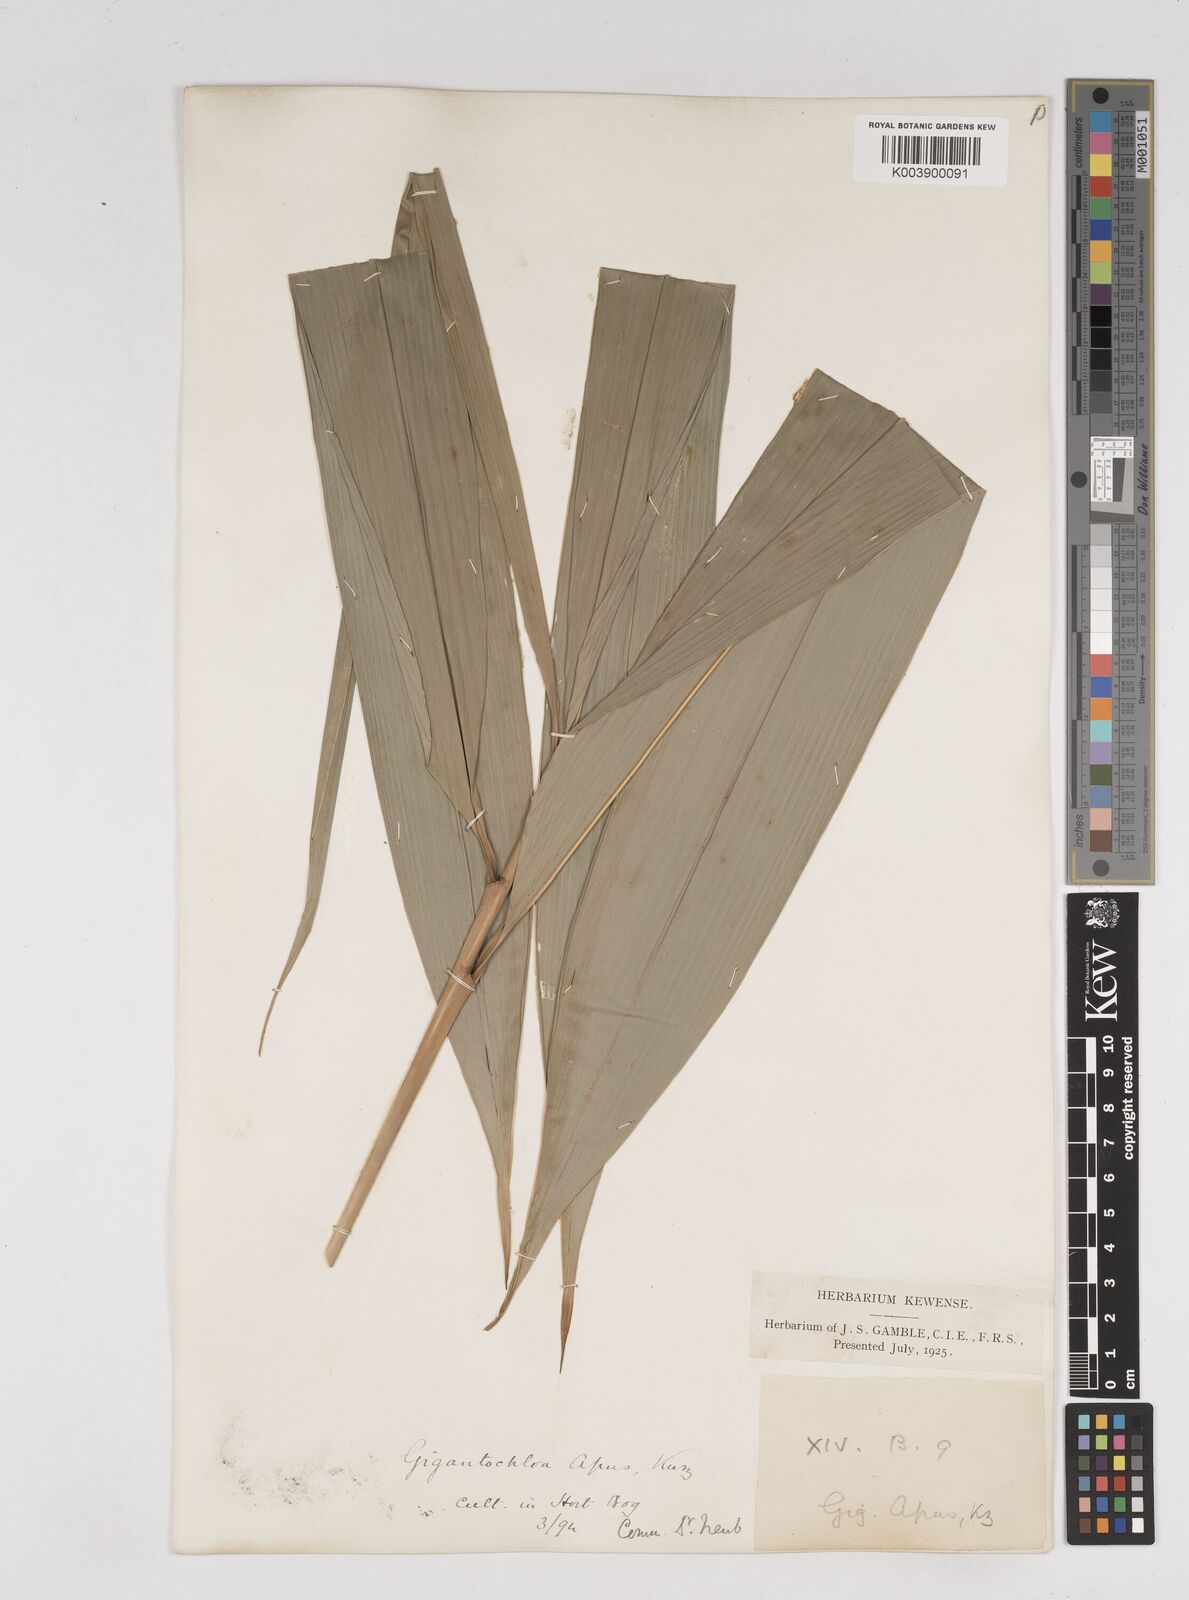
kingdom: Plantae
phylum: Tracheophyta
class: Liliopsida
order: Poales
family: Poaceae
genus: Gigantochloa
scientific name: Gigantochloa apus
